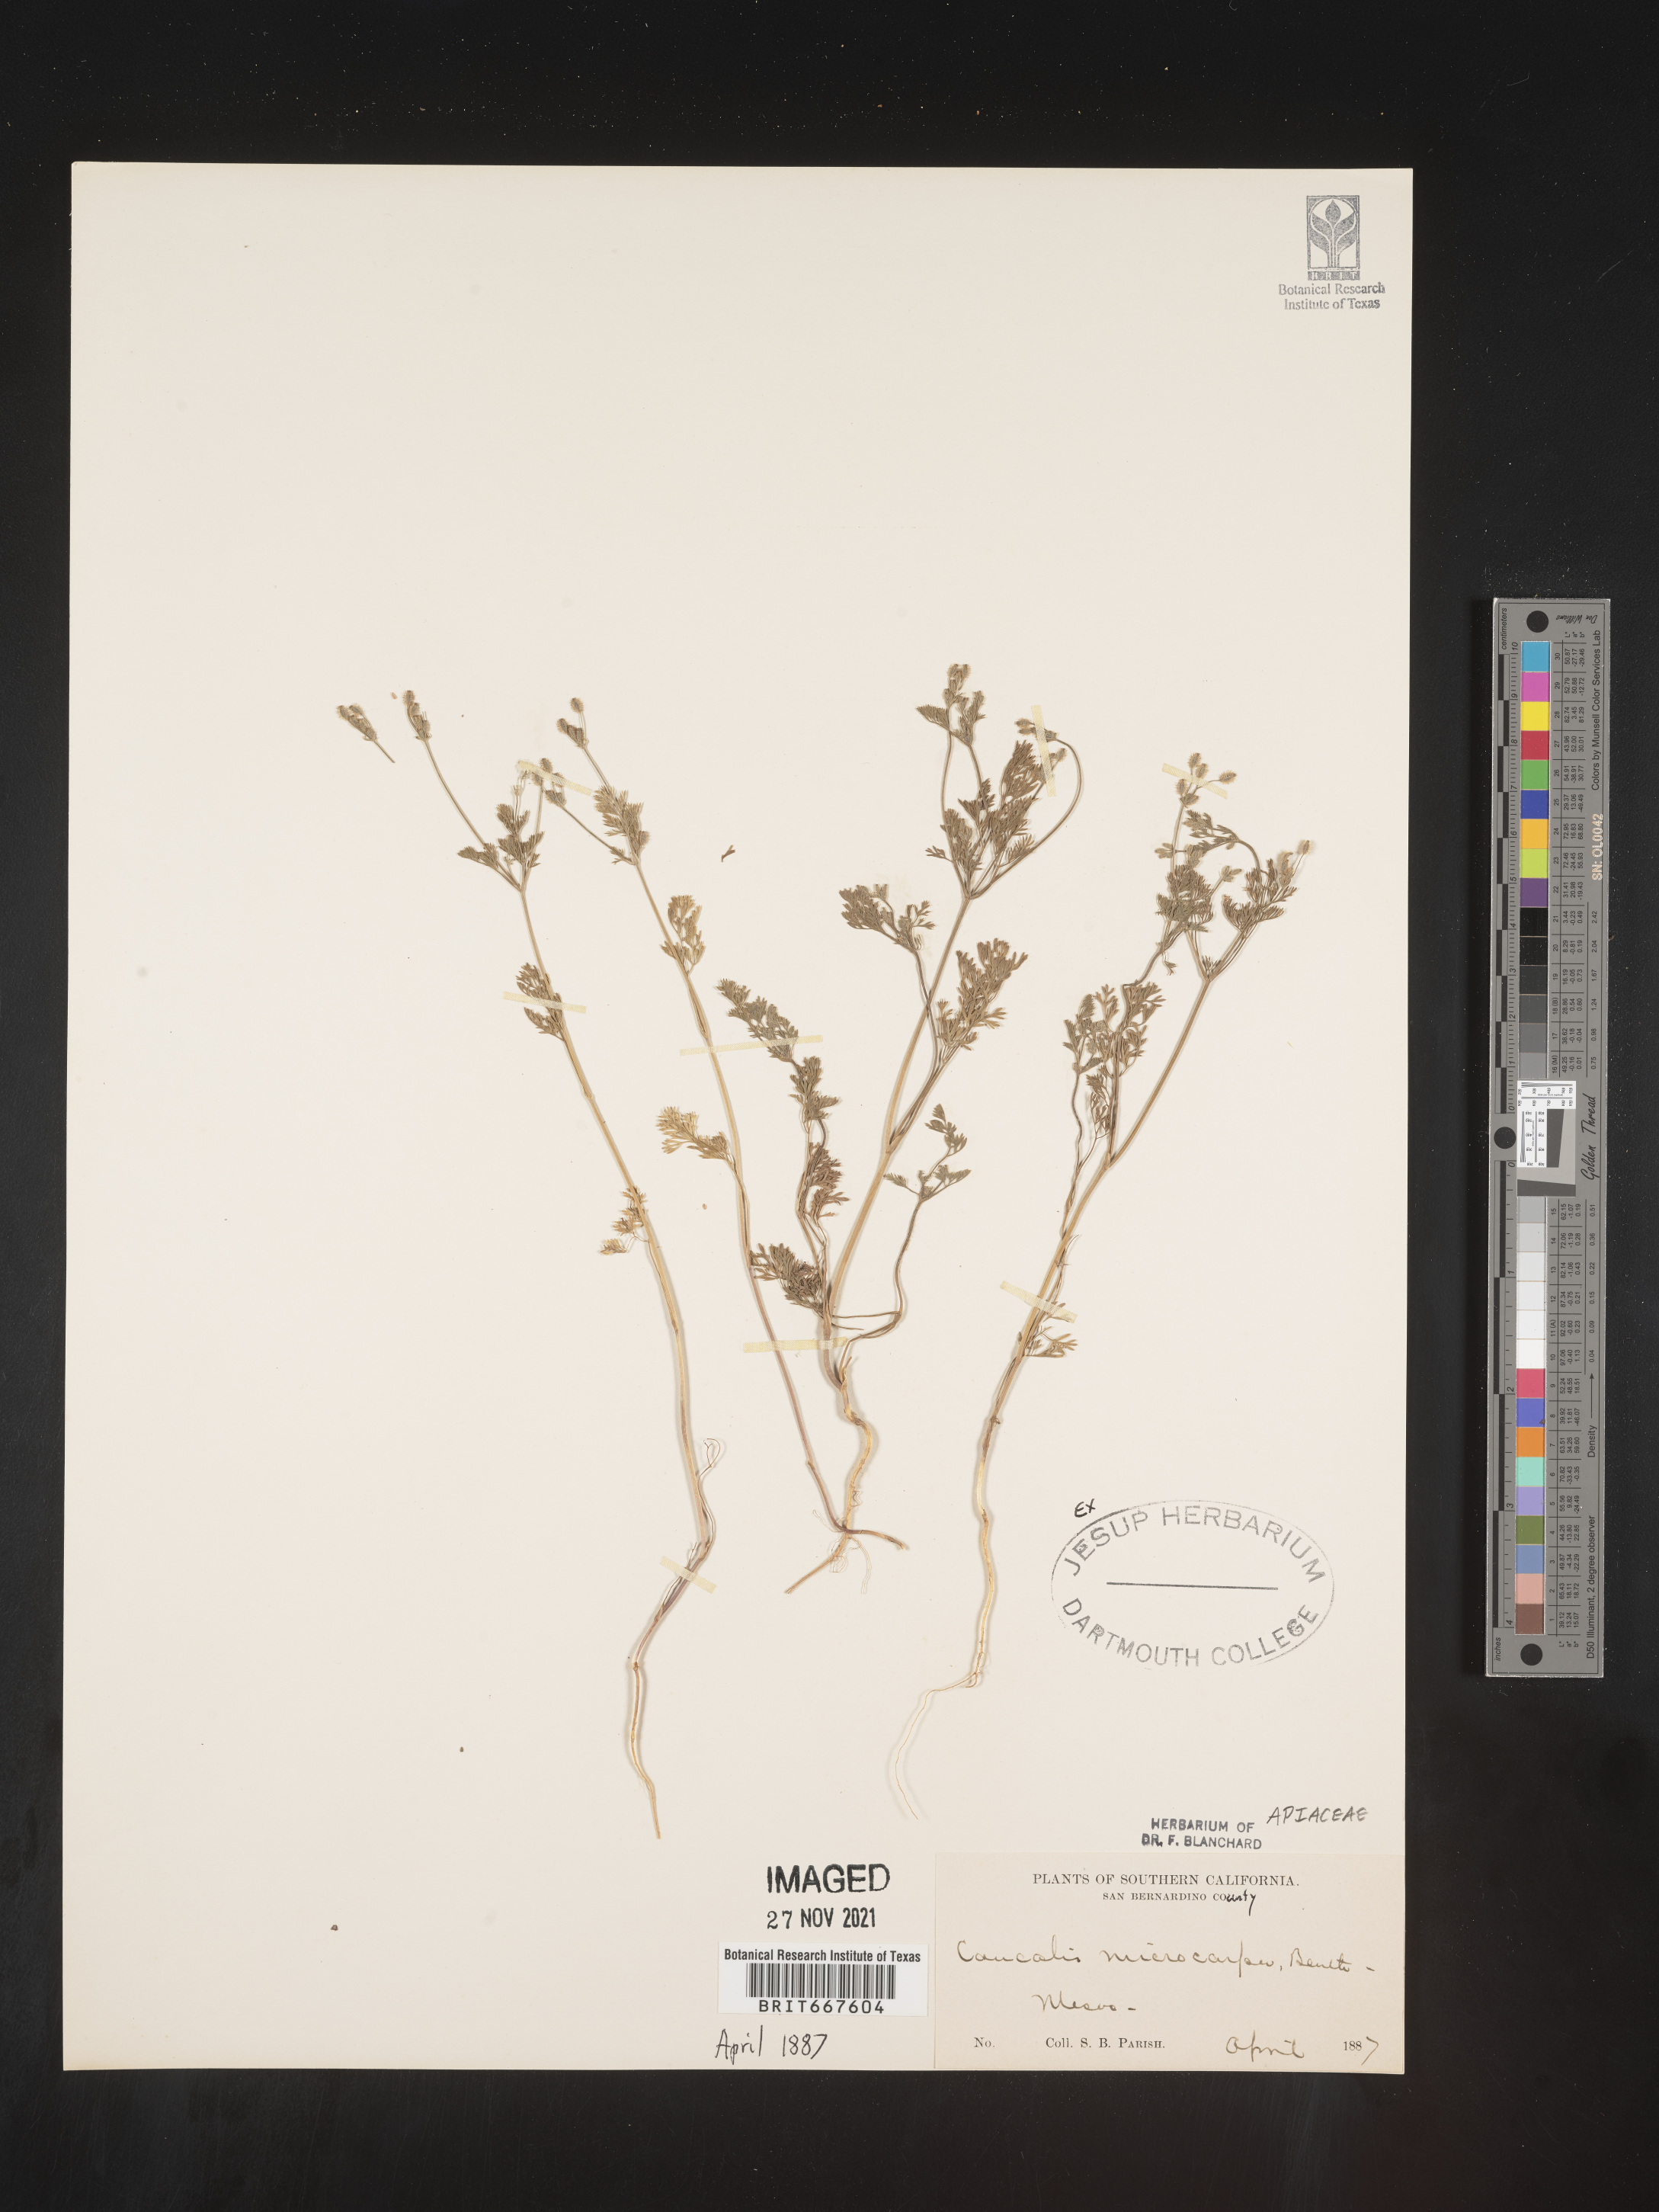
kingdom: Plantae
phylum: Tracheophyta
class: Magnoliopsida
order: Apiales
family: Apiaceae
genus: Caucalis
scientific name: Caucalis
